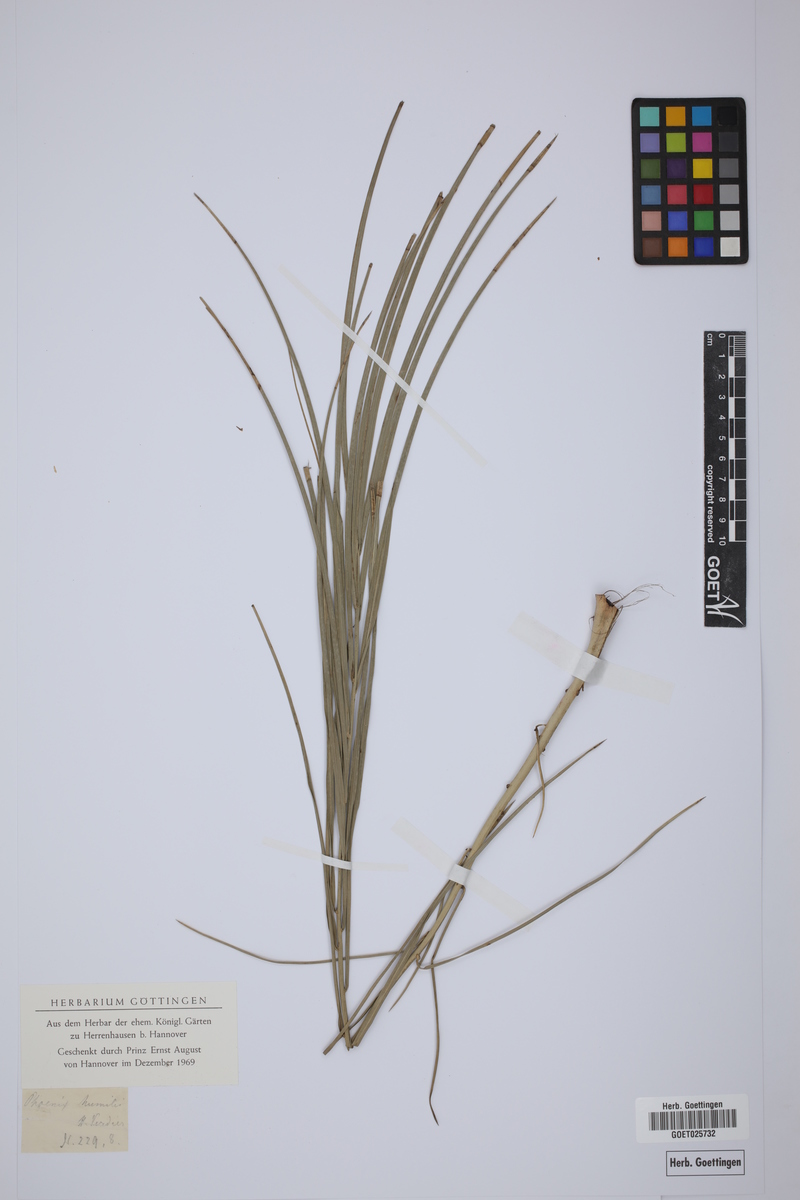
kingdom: Plantae
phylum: Tracheophyta
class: Liliopsida
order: Arecales
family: Arecaceae
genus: Chamaerops
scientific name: Chamaerops humilis
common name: Dwarf fan palm
